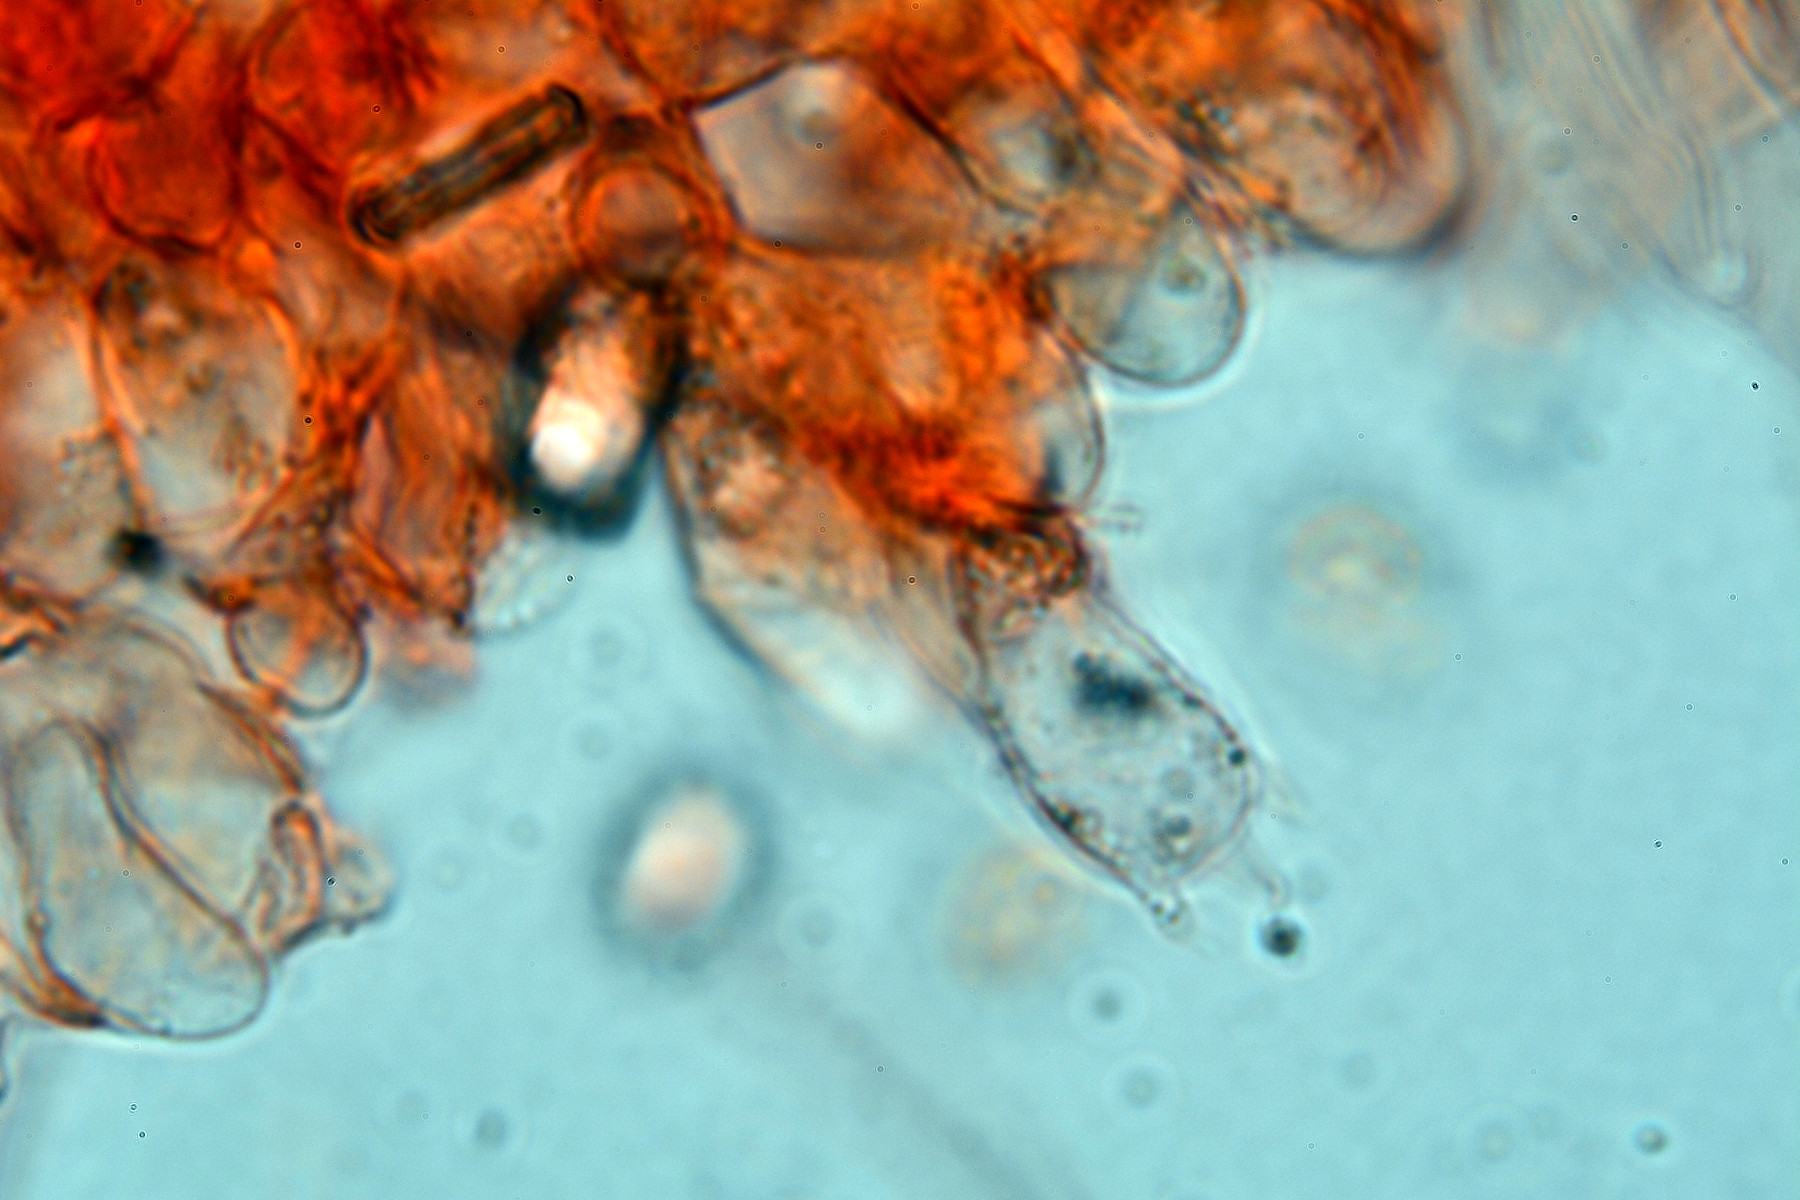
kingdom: Fungi
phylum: Basidiomycota
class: Agaricomycetes
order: Agaricales
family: Tricholomataceae
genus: Melanoleuca
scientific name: Melanoleuca
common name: munkehat
